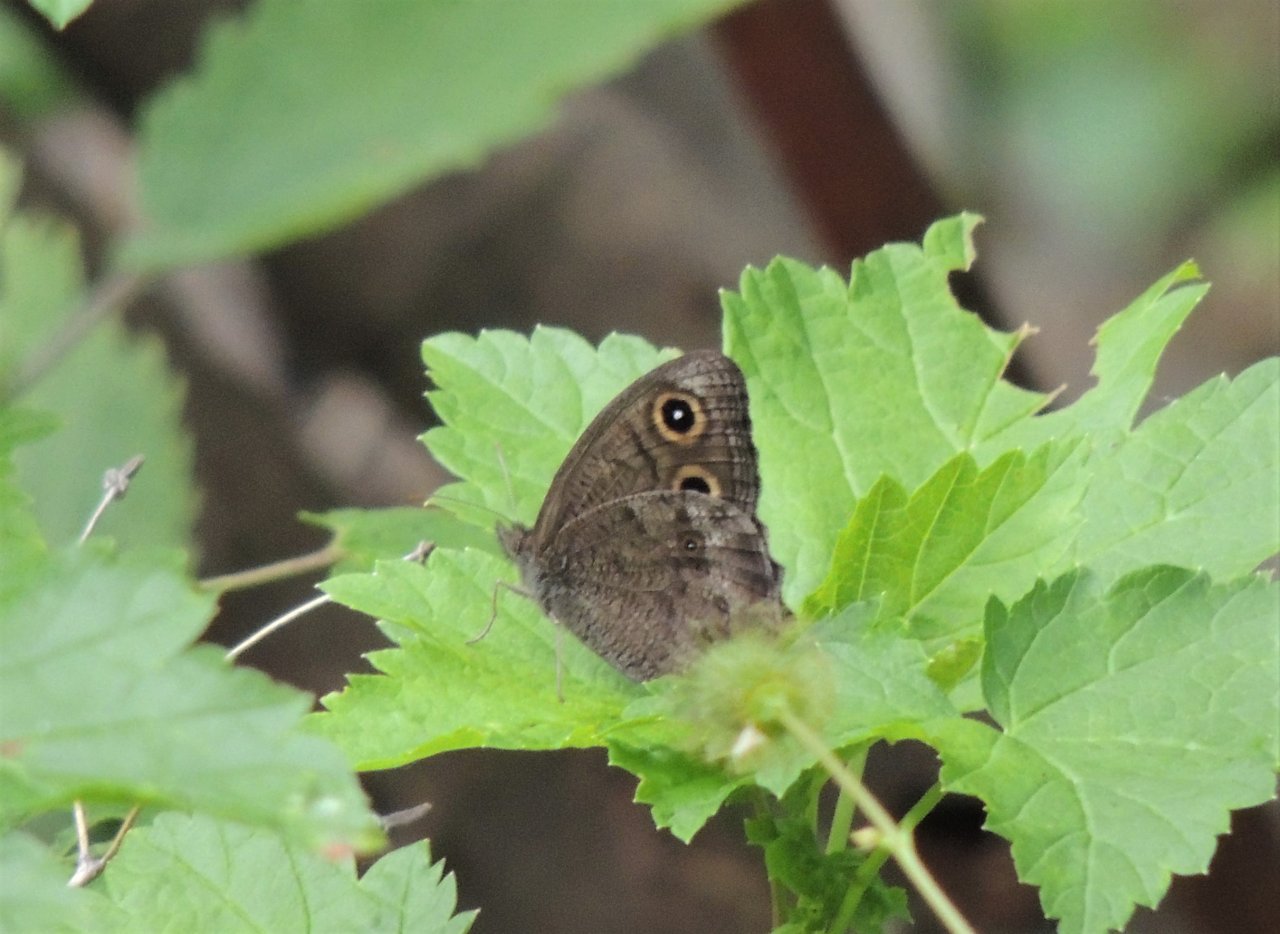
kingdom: Animalia
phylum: Arthropoda
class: Insecta
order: Lepidoptera
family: Nymphalidae
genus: Cercyonis
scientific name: Cercyonis pegala
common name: Common Wood-Nymph
